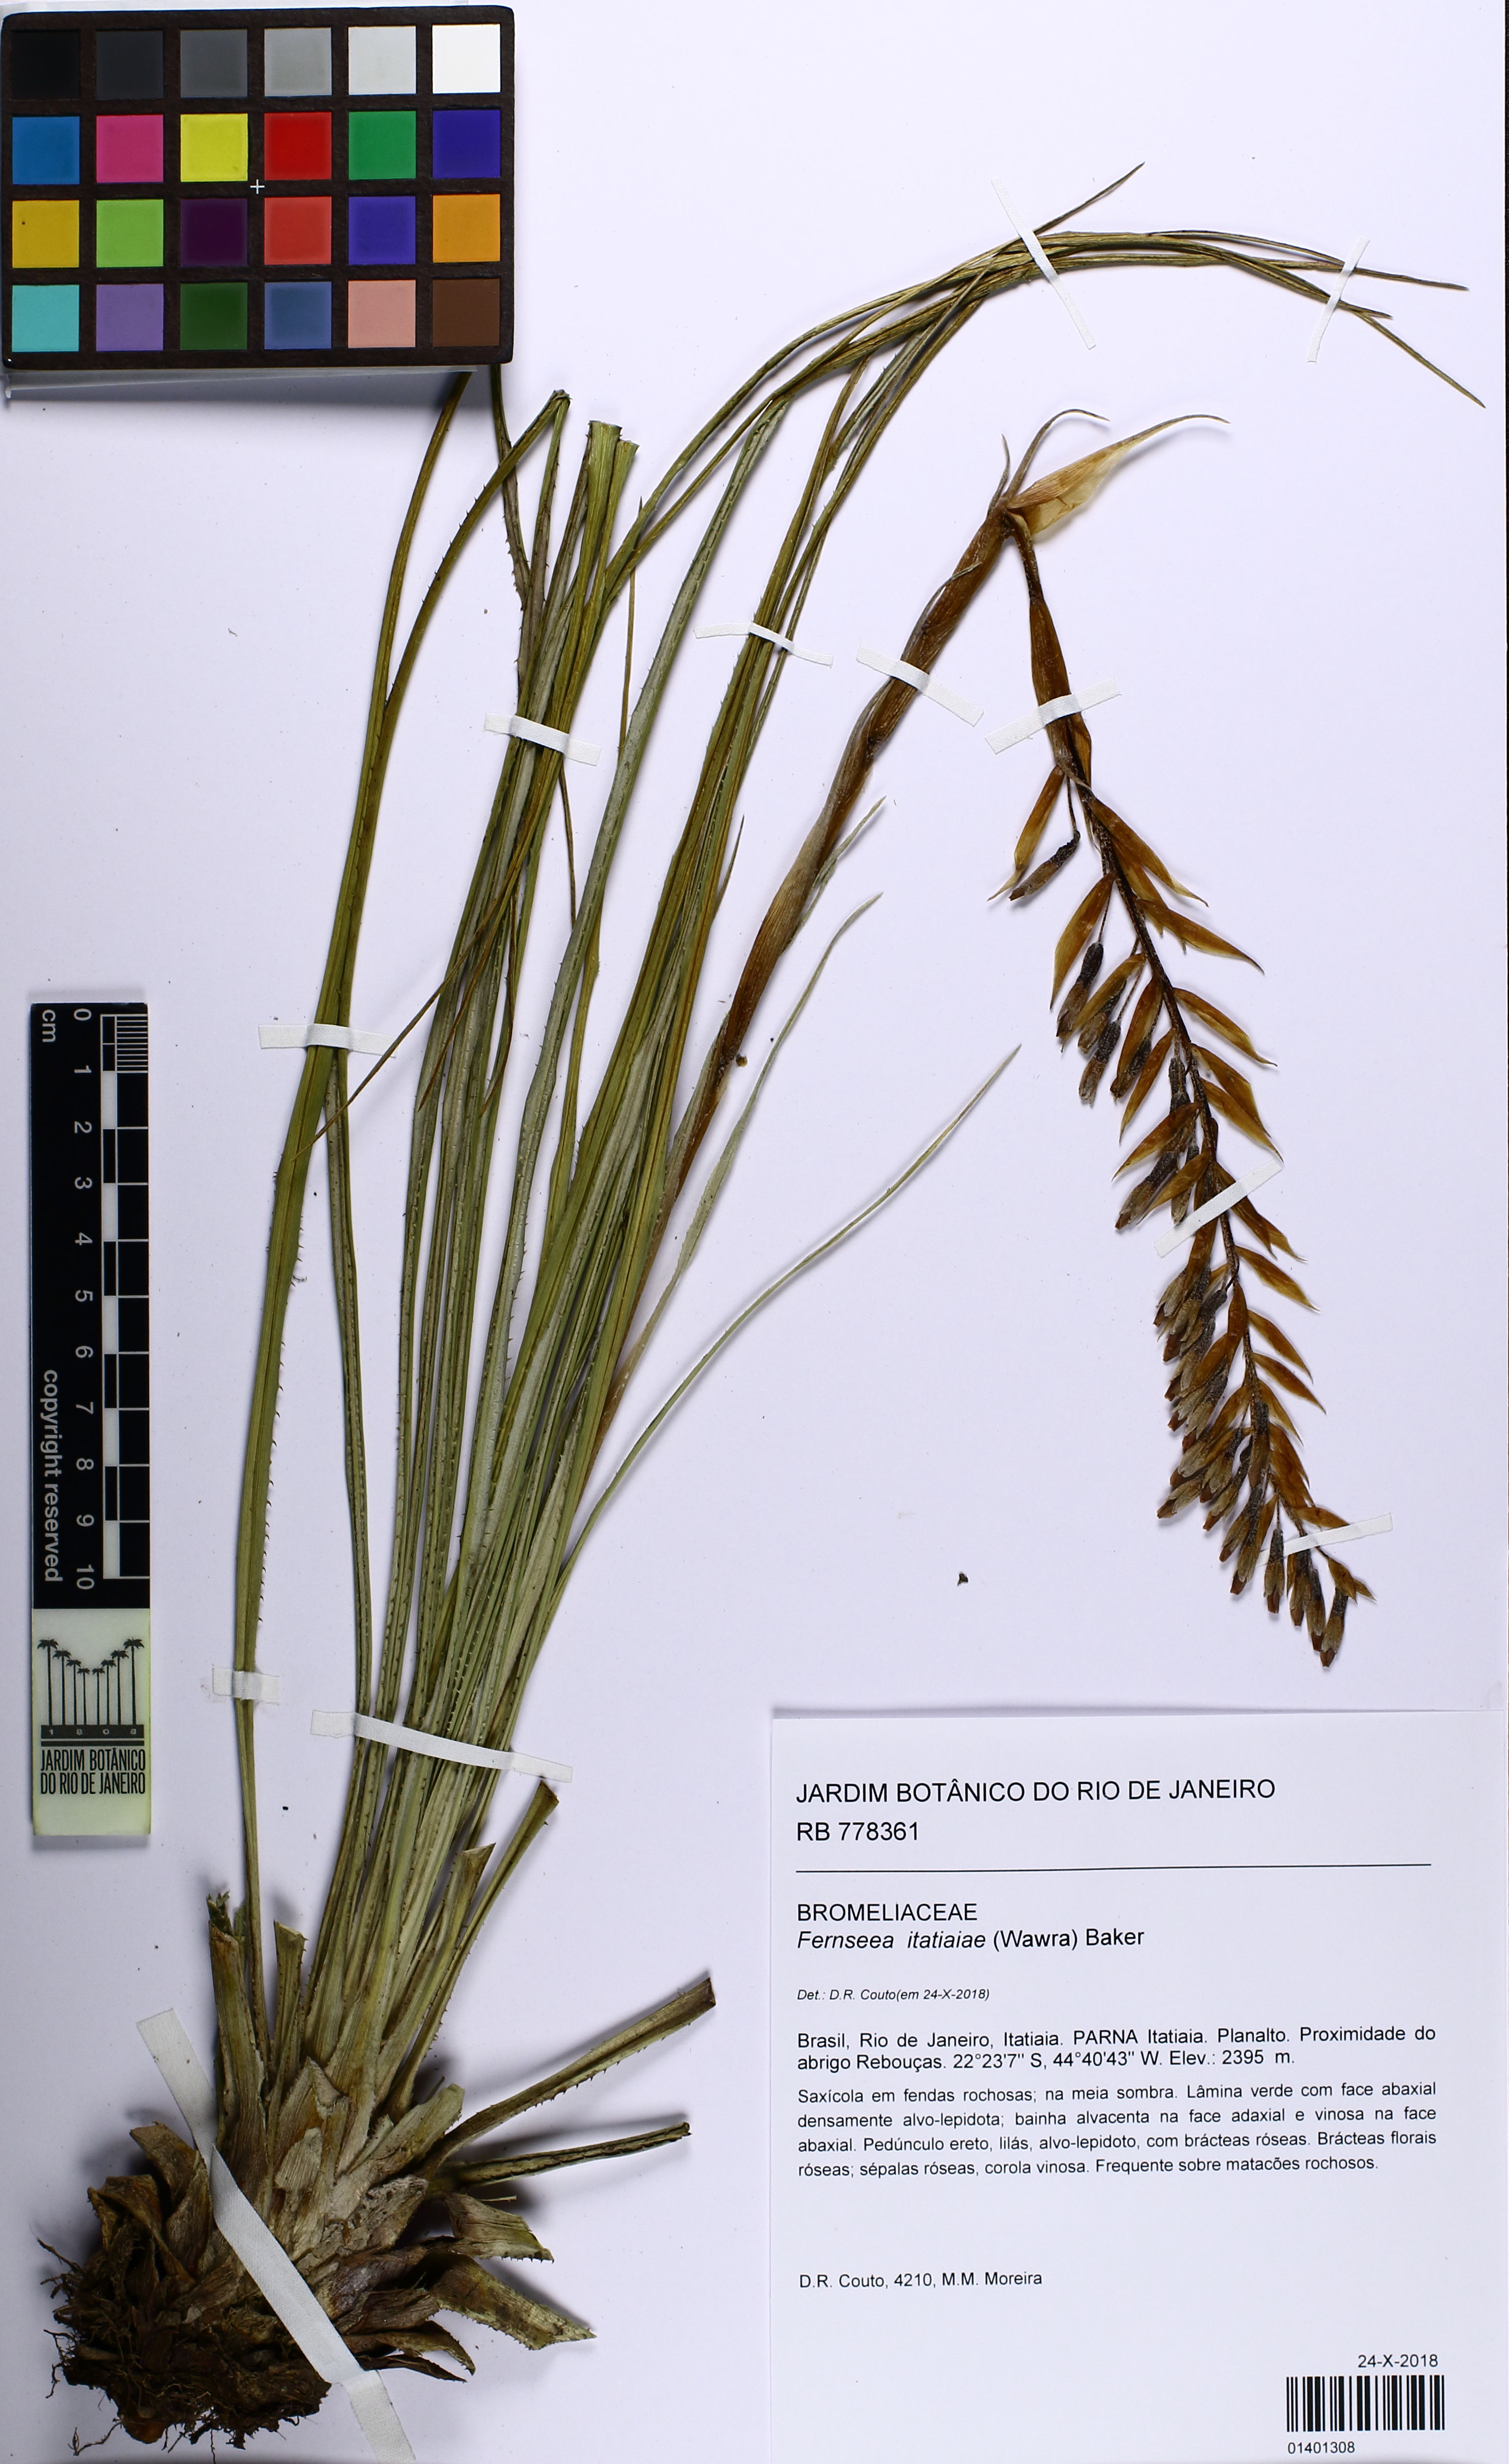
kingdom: Plantae
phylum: Tracheophyta
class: Liliopsida
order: Poales
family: Bromeliaceae
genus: Fernseea
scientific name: Fernseea itatiaiae
